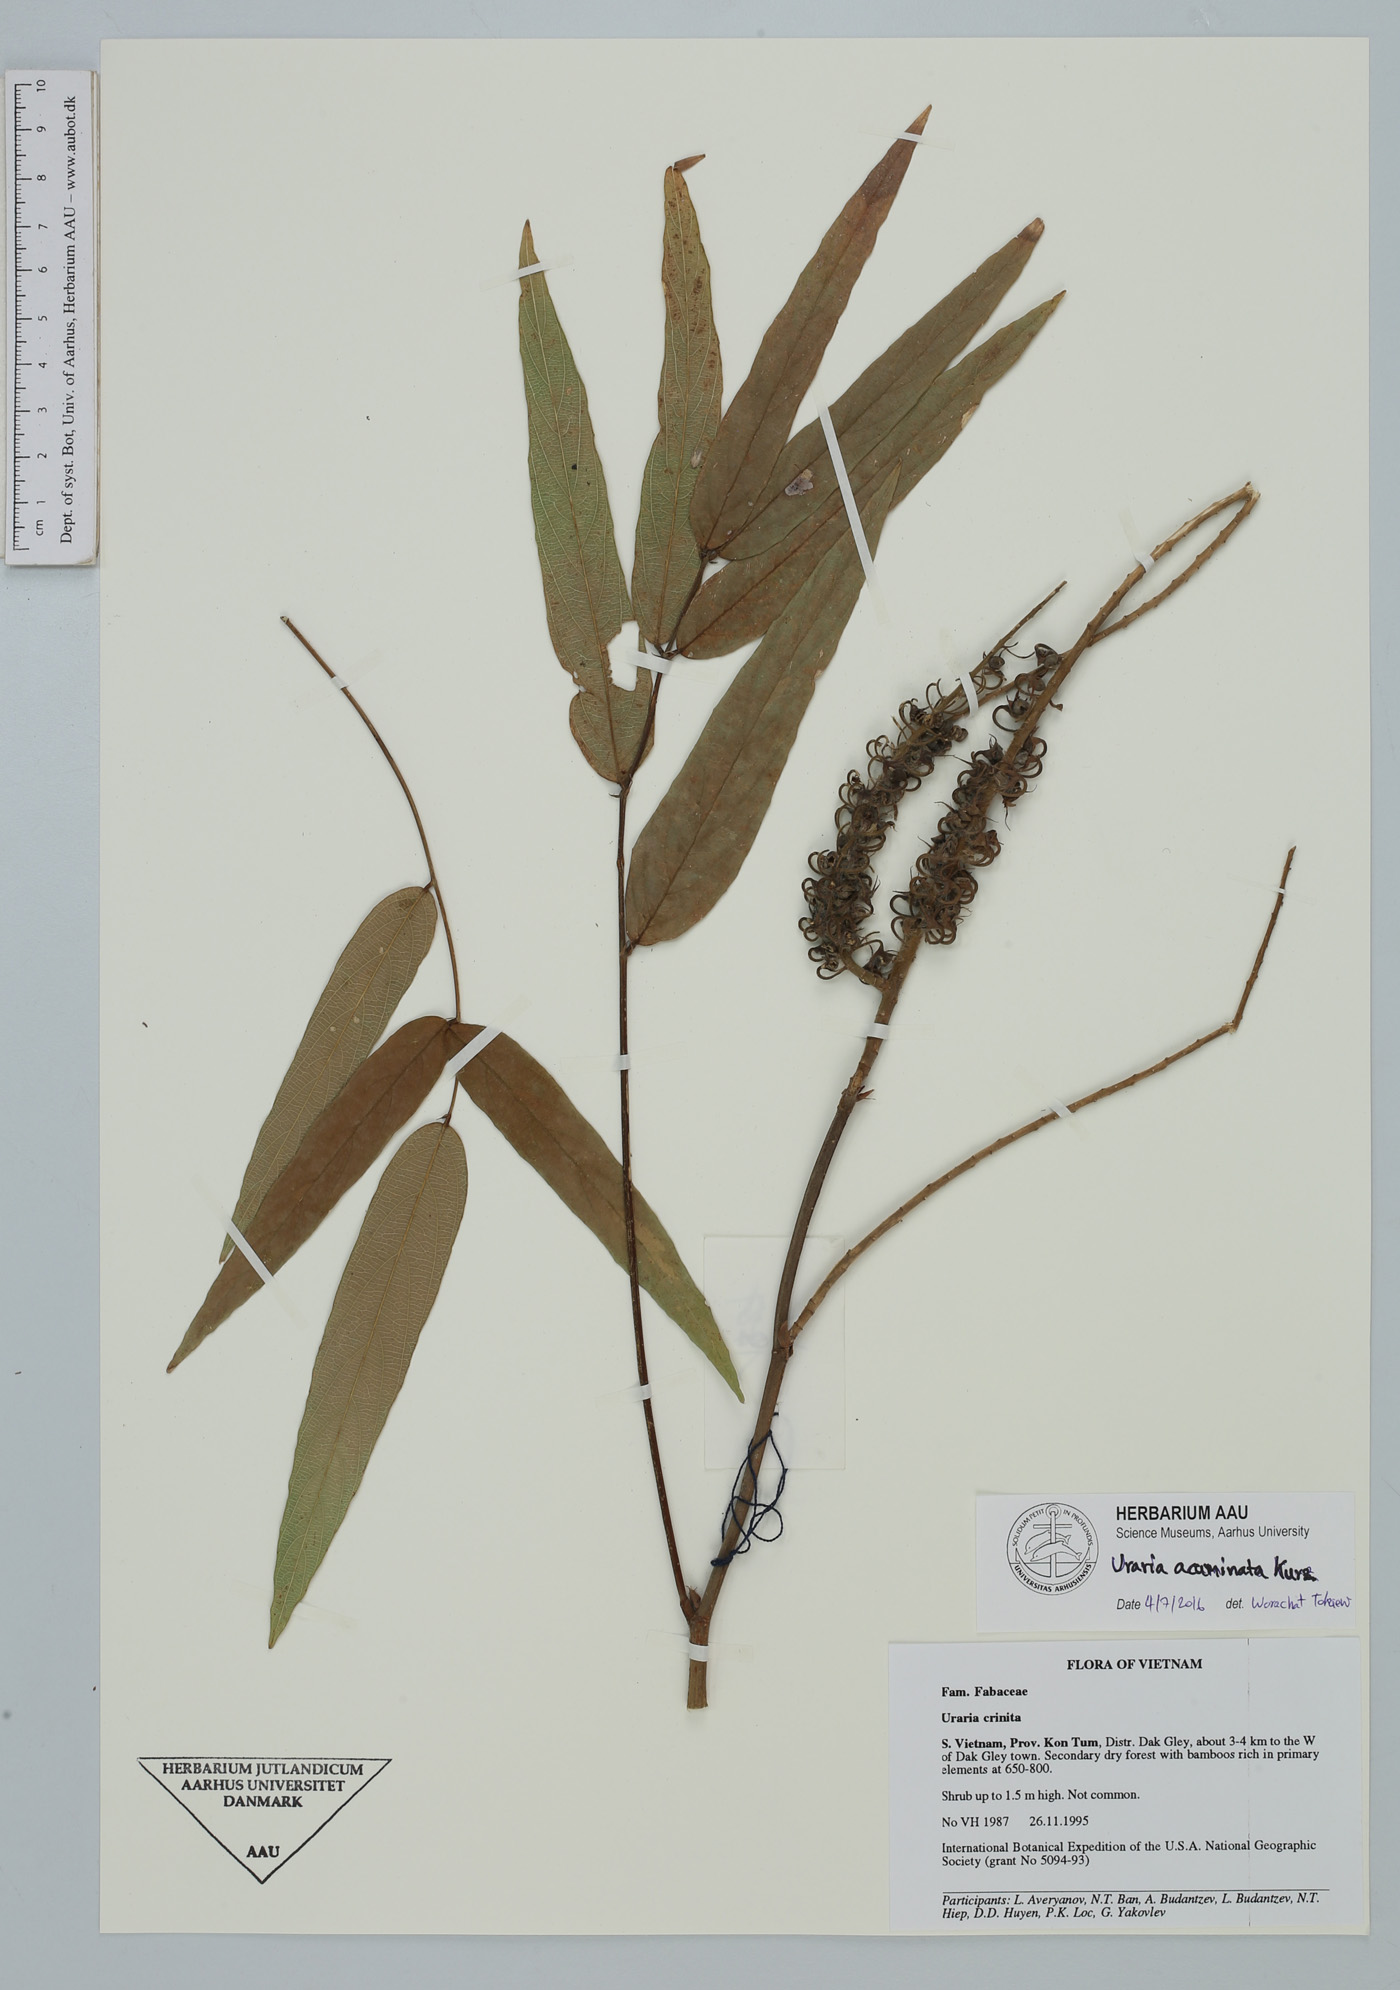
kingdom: Plantae
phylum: Tracheophyta
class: Magnoliopsida
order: Fabales
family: Fabaceae
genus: Uraria
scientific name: Uraria acuminata
